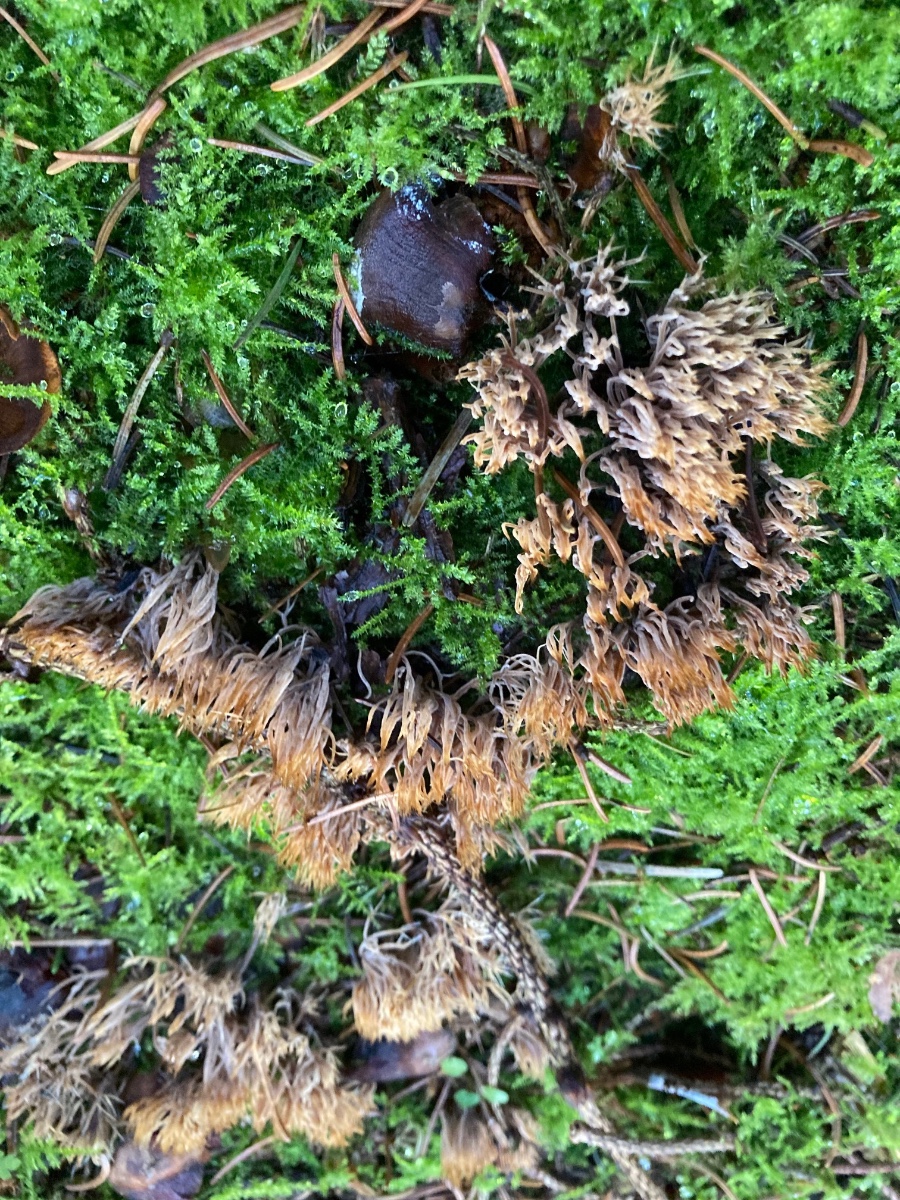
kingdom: Fungi
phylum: Basidiomycota
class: Agaricomycetes
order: Agaricales
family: Pterulaceae
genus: Pterula
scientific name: Pterula multifida
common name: busket fjerkølle
